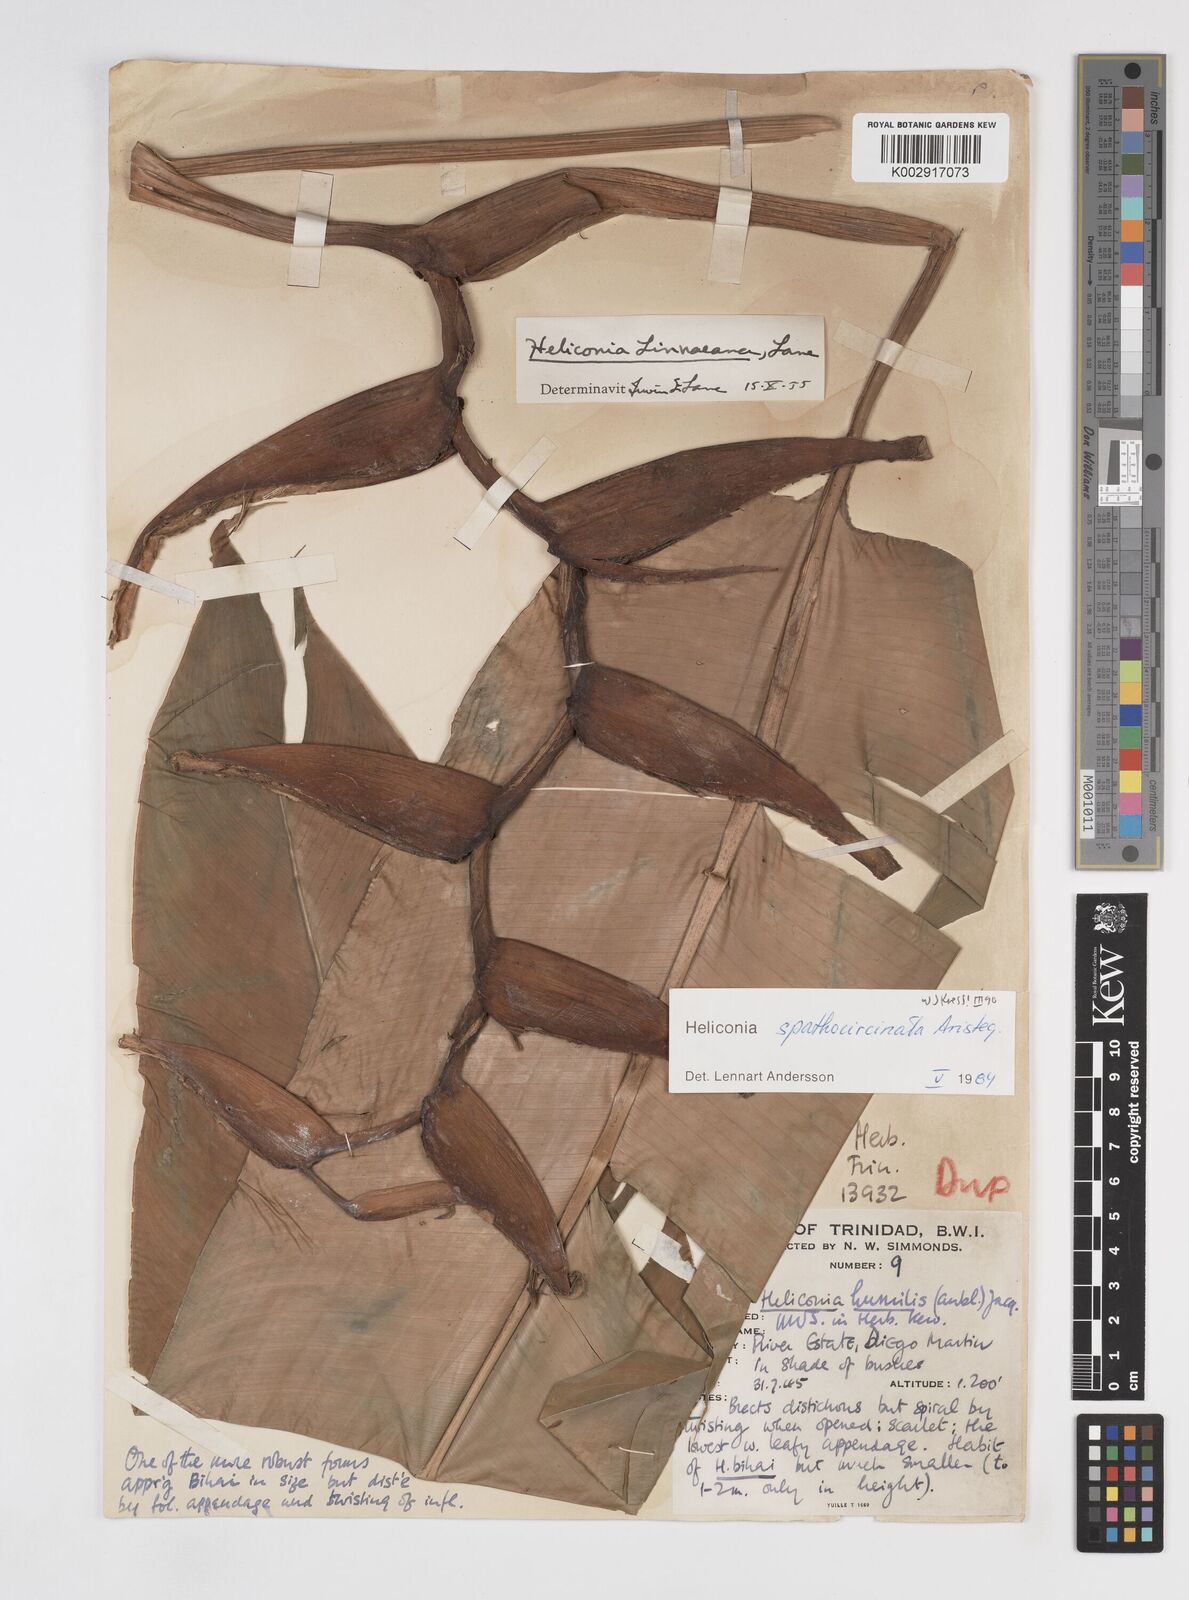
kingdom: Plantae
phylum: Tracheophyta
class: Liliopsida
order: Zingiberales
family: Heliconiaceae
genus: Heliconia
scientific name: Heliconia spathocircinata
